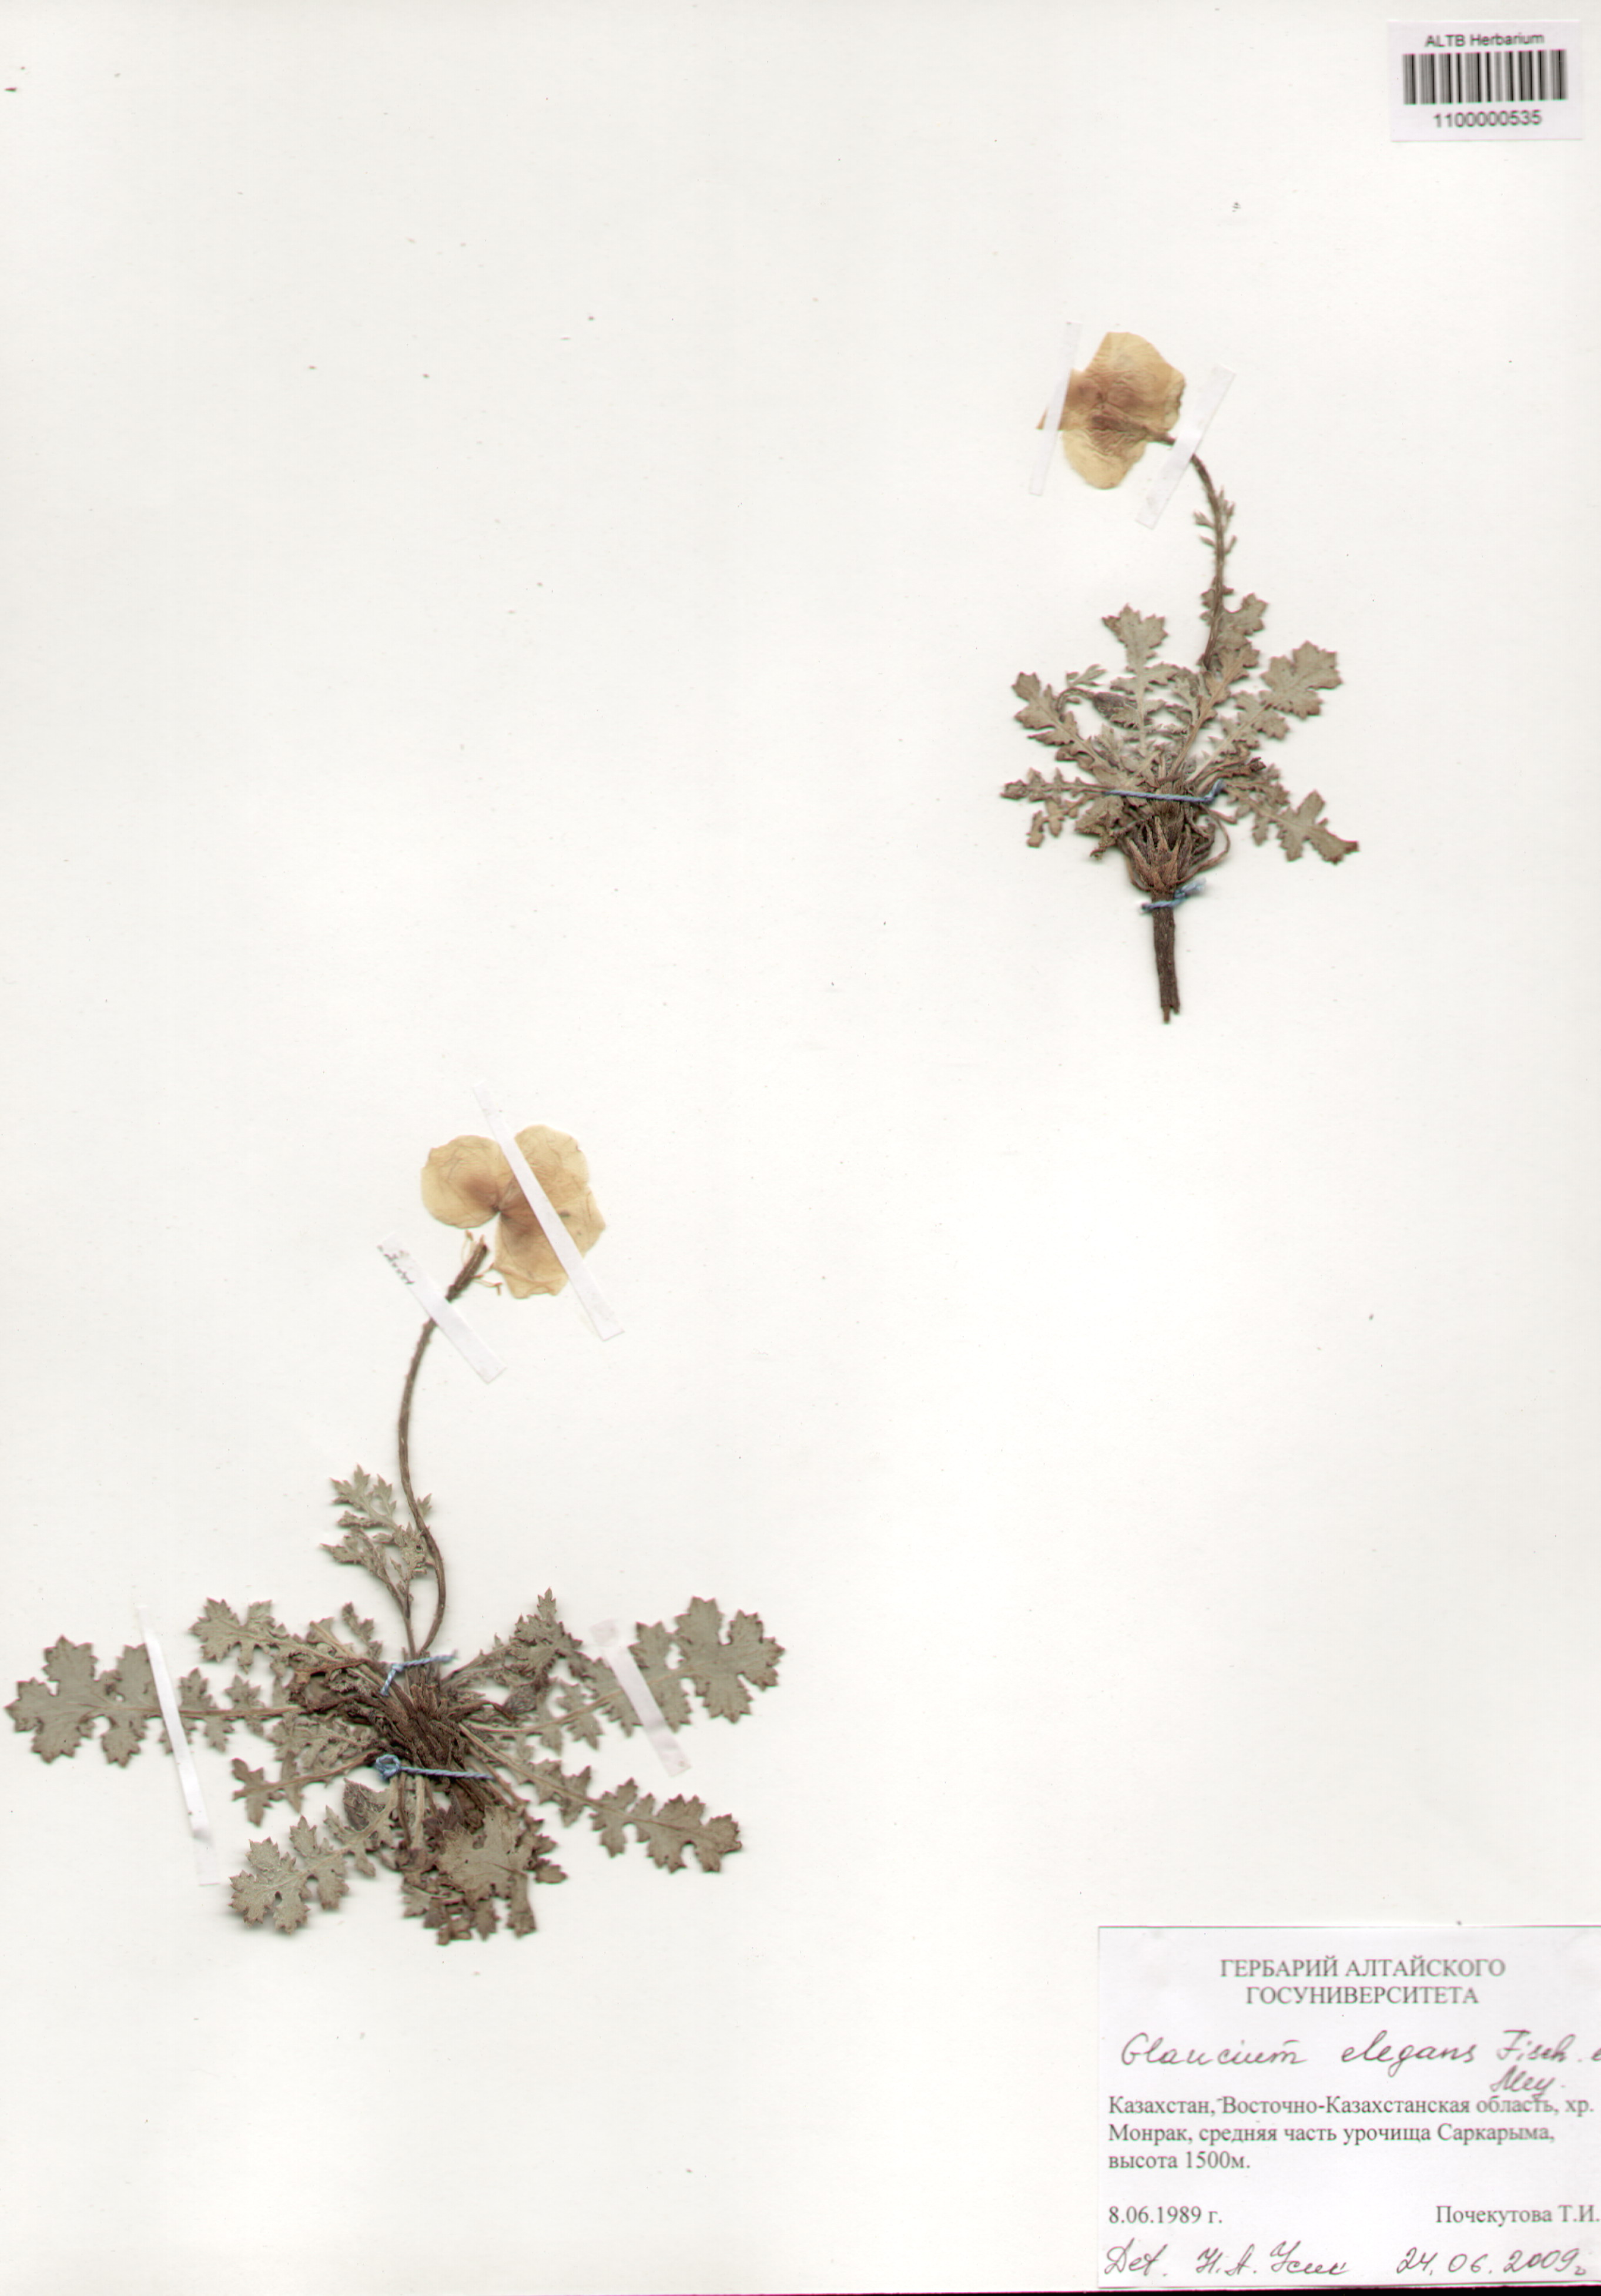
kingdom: Plantae
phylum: Tracheophyta
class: Magnoliopsida
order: Ranunculales
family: Papaveraceae
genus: Glaucium
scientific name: Glaucium elegans
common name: Annual horned-poppy
